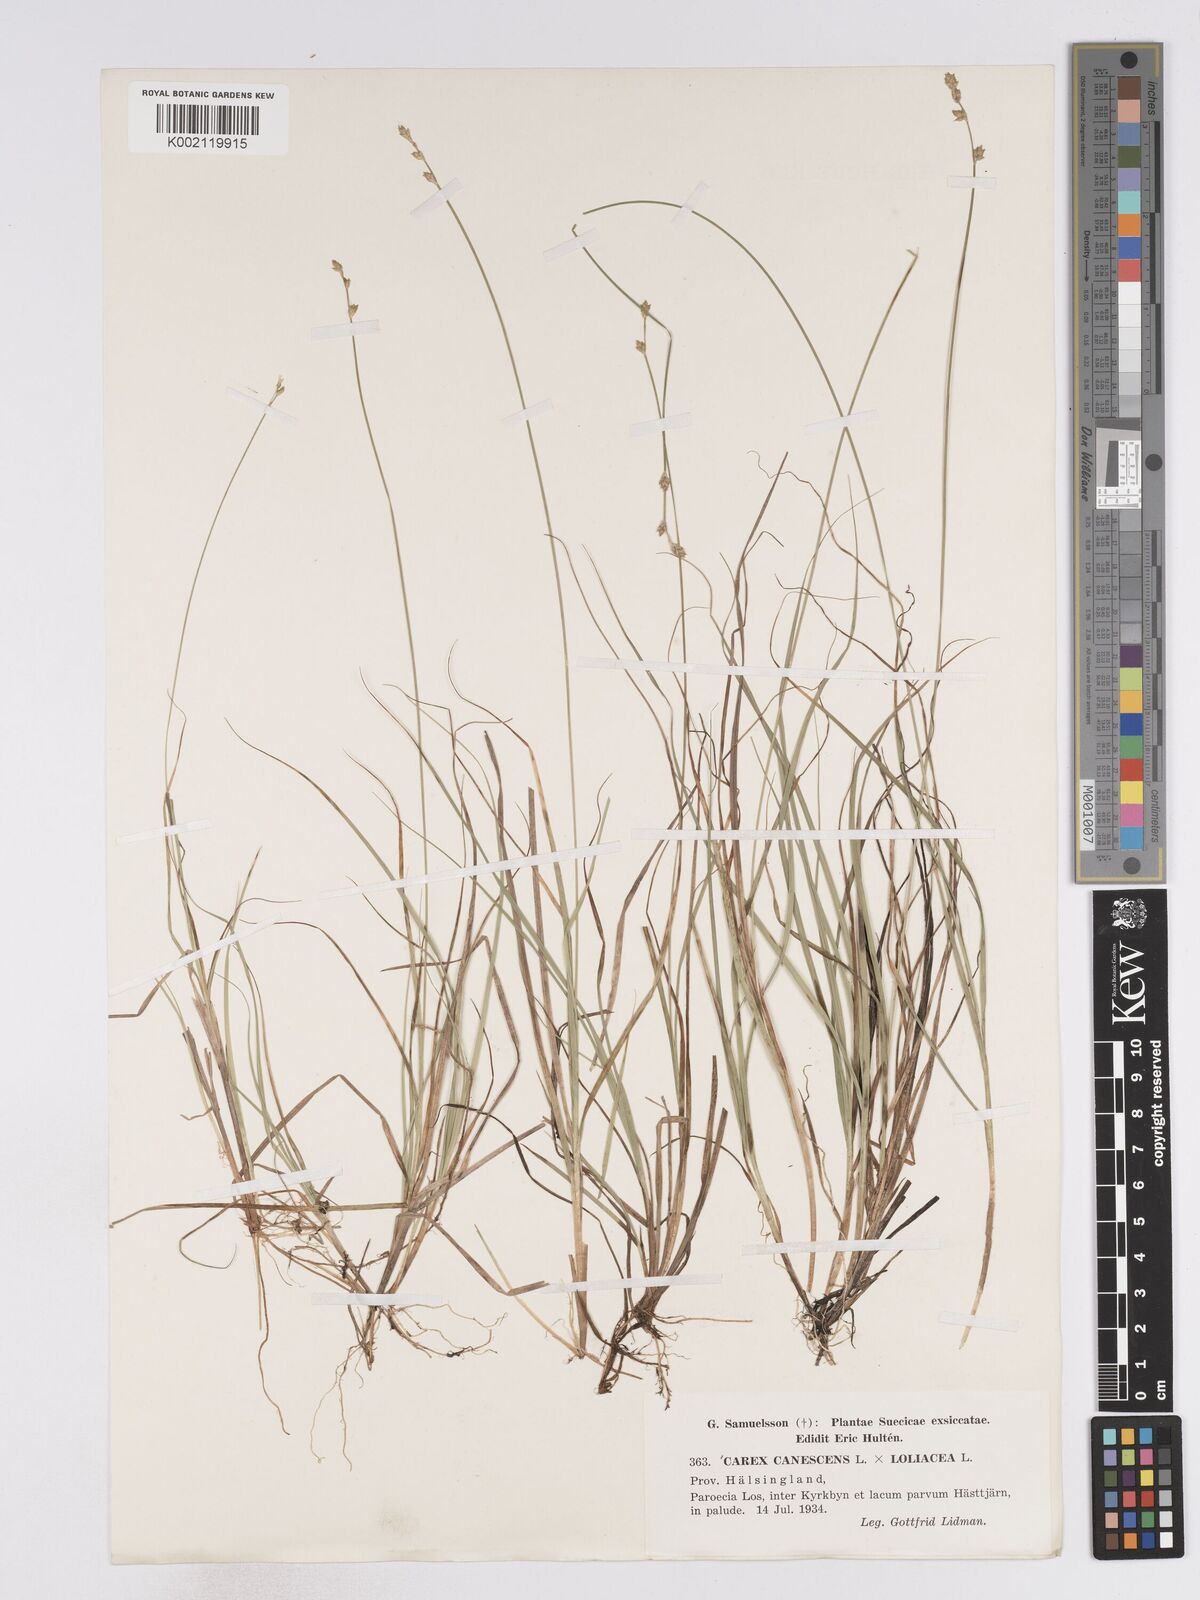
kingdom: Plantae
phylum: Tracheophyta
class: Liliopsida
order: Poales
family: Cyperaceae
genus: Carex
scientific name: Carex curta
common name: White sedge
